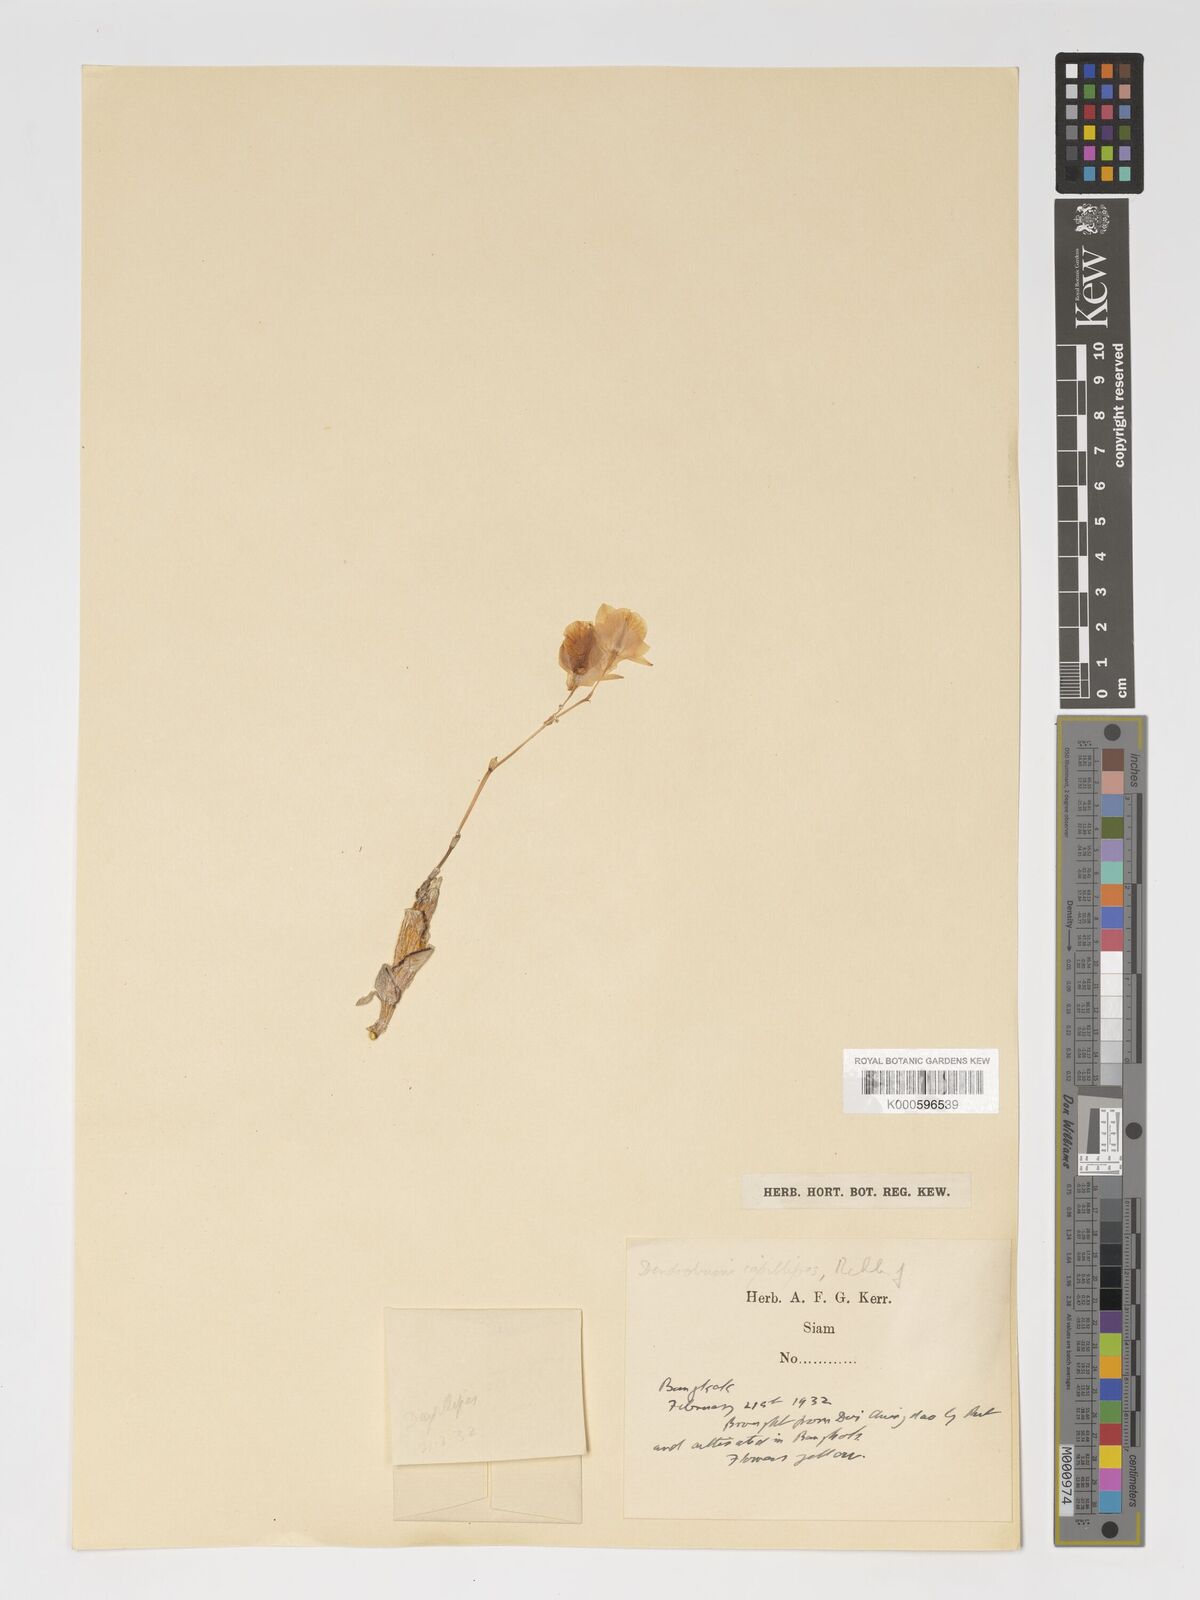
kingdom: Plantae
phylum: Tracheophyta
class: Liliopsida
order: Asparagales
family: Orchidaceae
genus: Dendrobium
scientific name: Dendrobium capillipes
